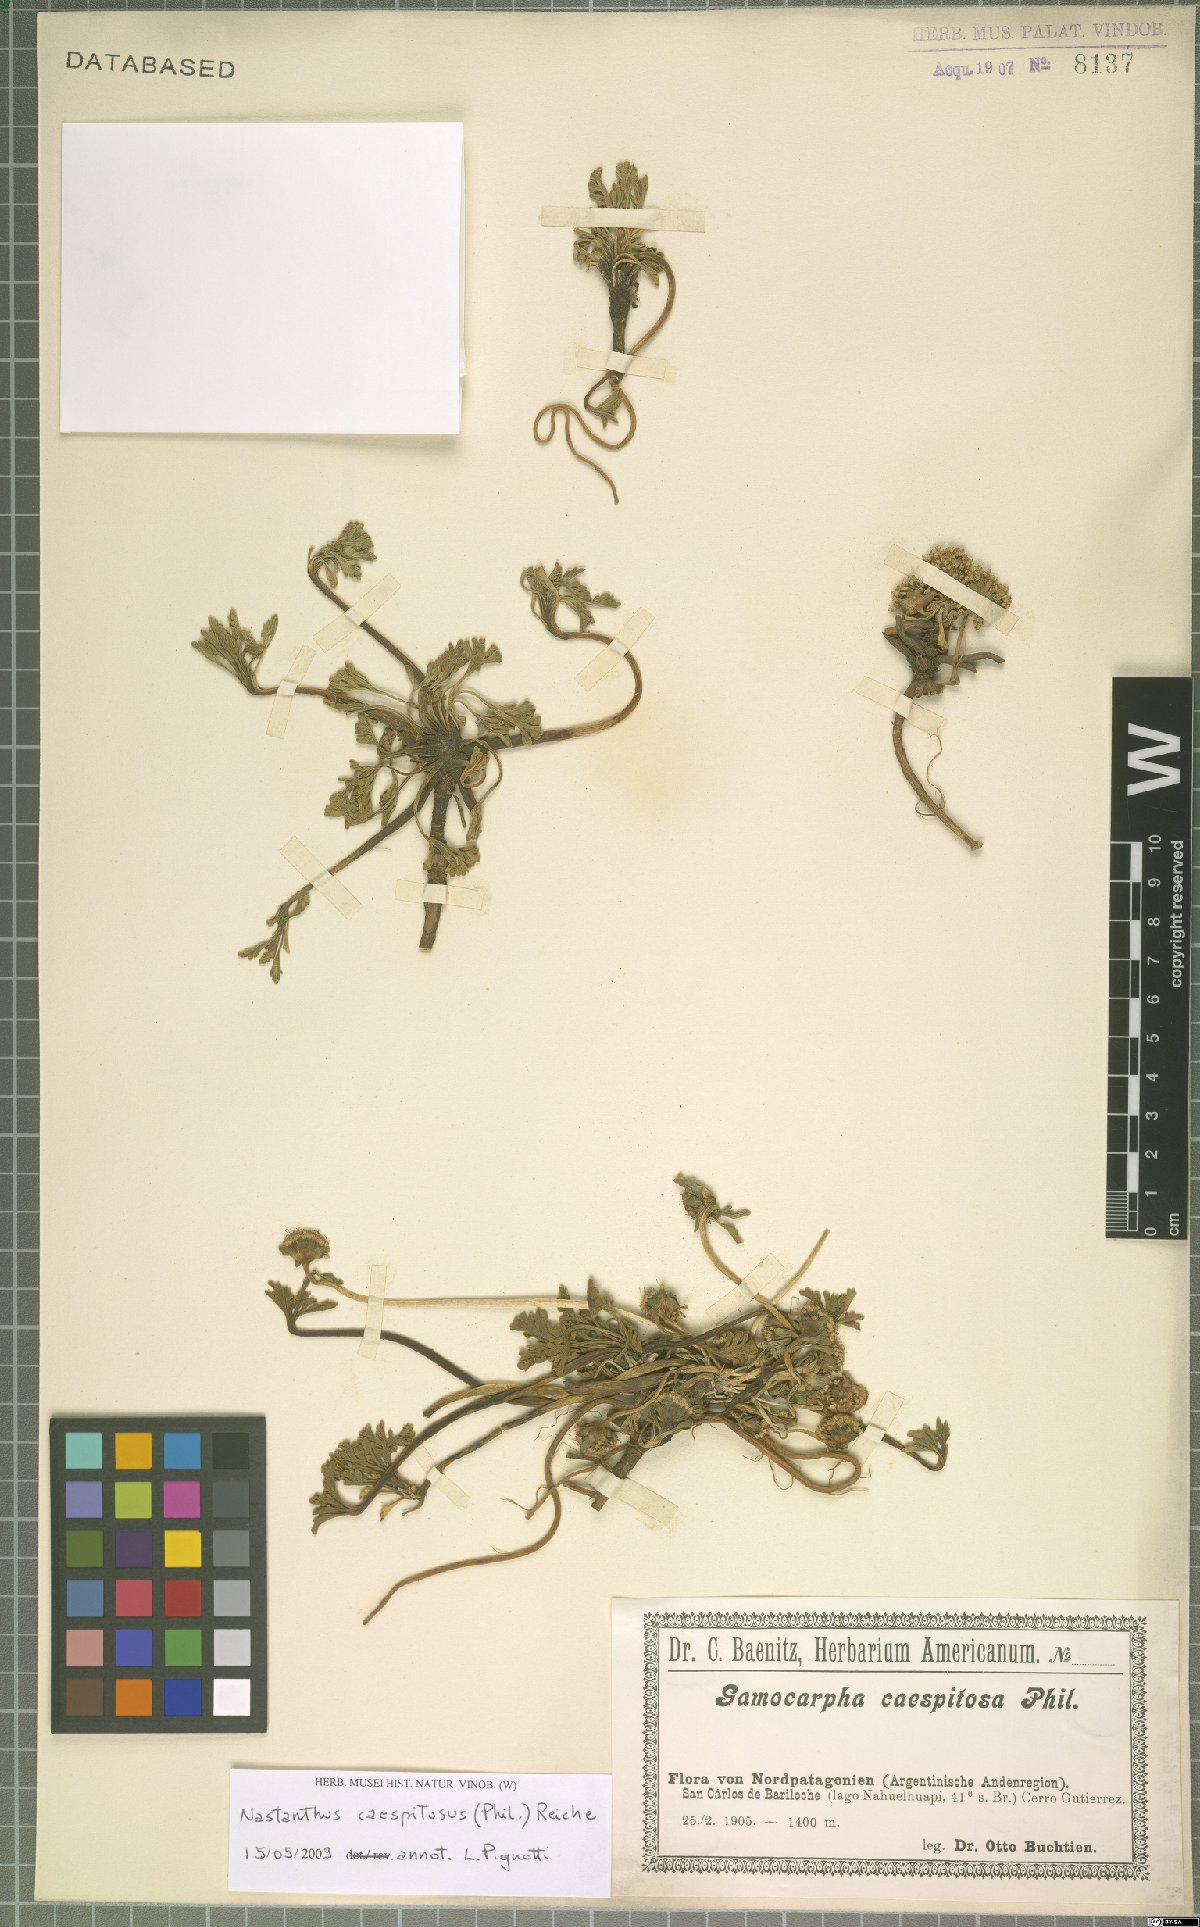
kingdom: Plantae
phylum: Tracheophyta
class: Magnoliopsida
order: Asterales
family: Calyceraceae
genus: Gamocarpha
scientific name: Gamocarpha caespitosa
